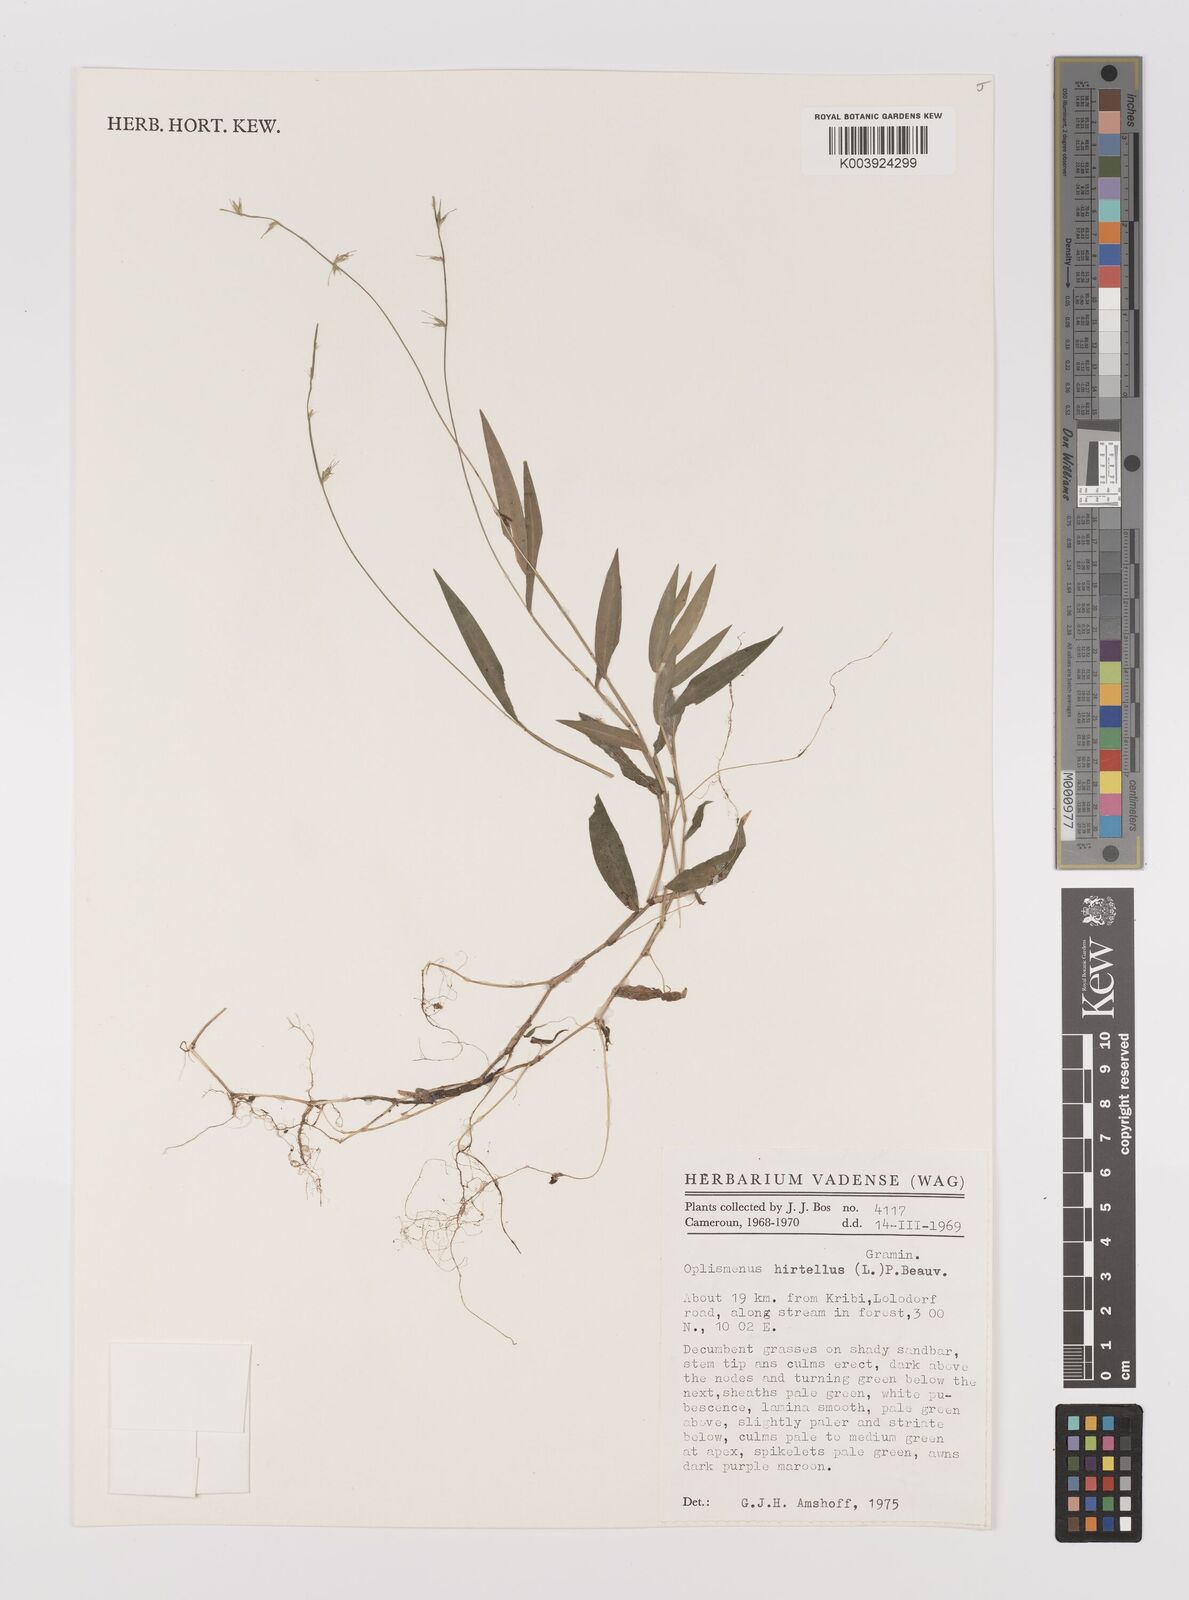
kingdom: Plantae
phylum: Tracheophyta
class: Liliopsida
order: Poales
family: Poaceae
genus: Oplismenus
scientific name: Oplismenus hirtellus
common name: Basketgrass
